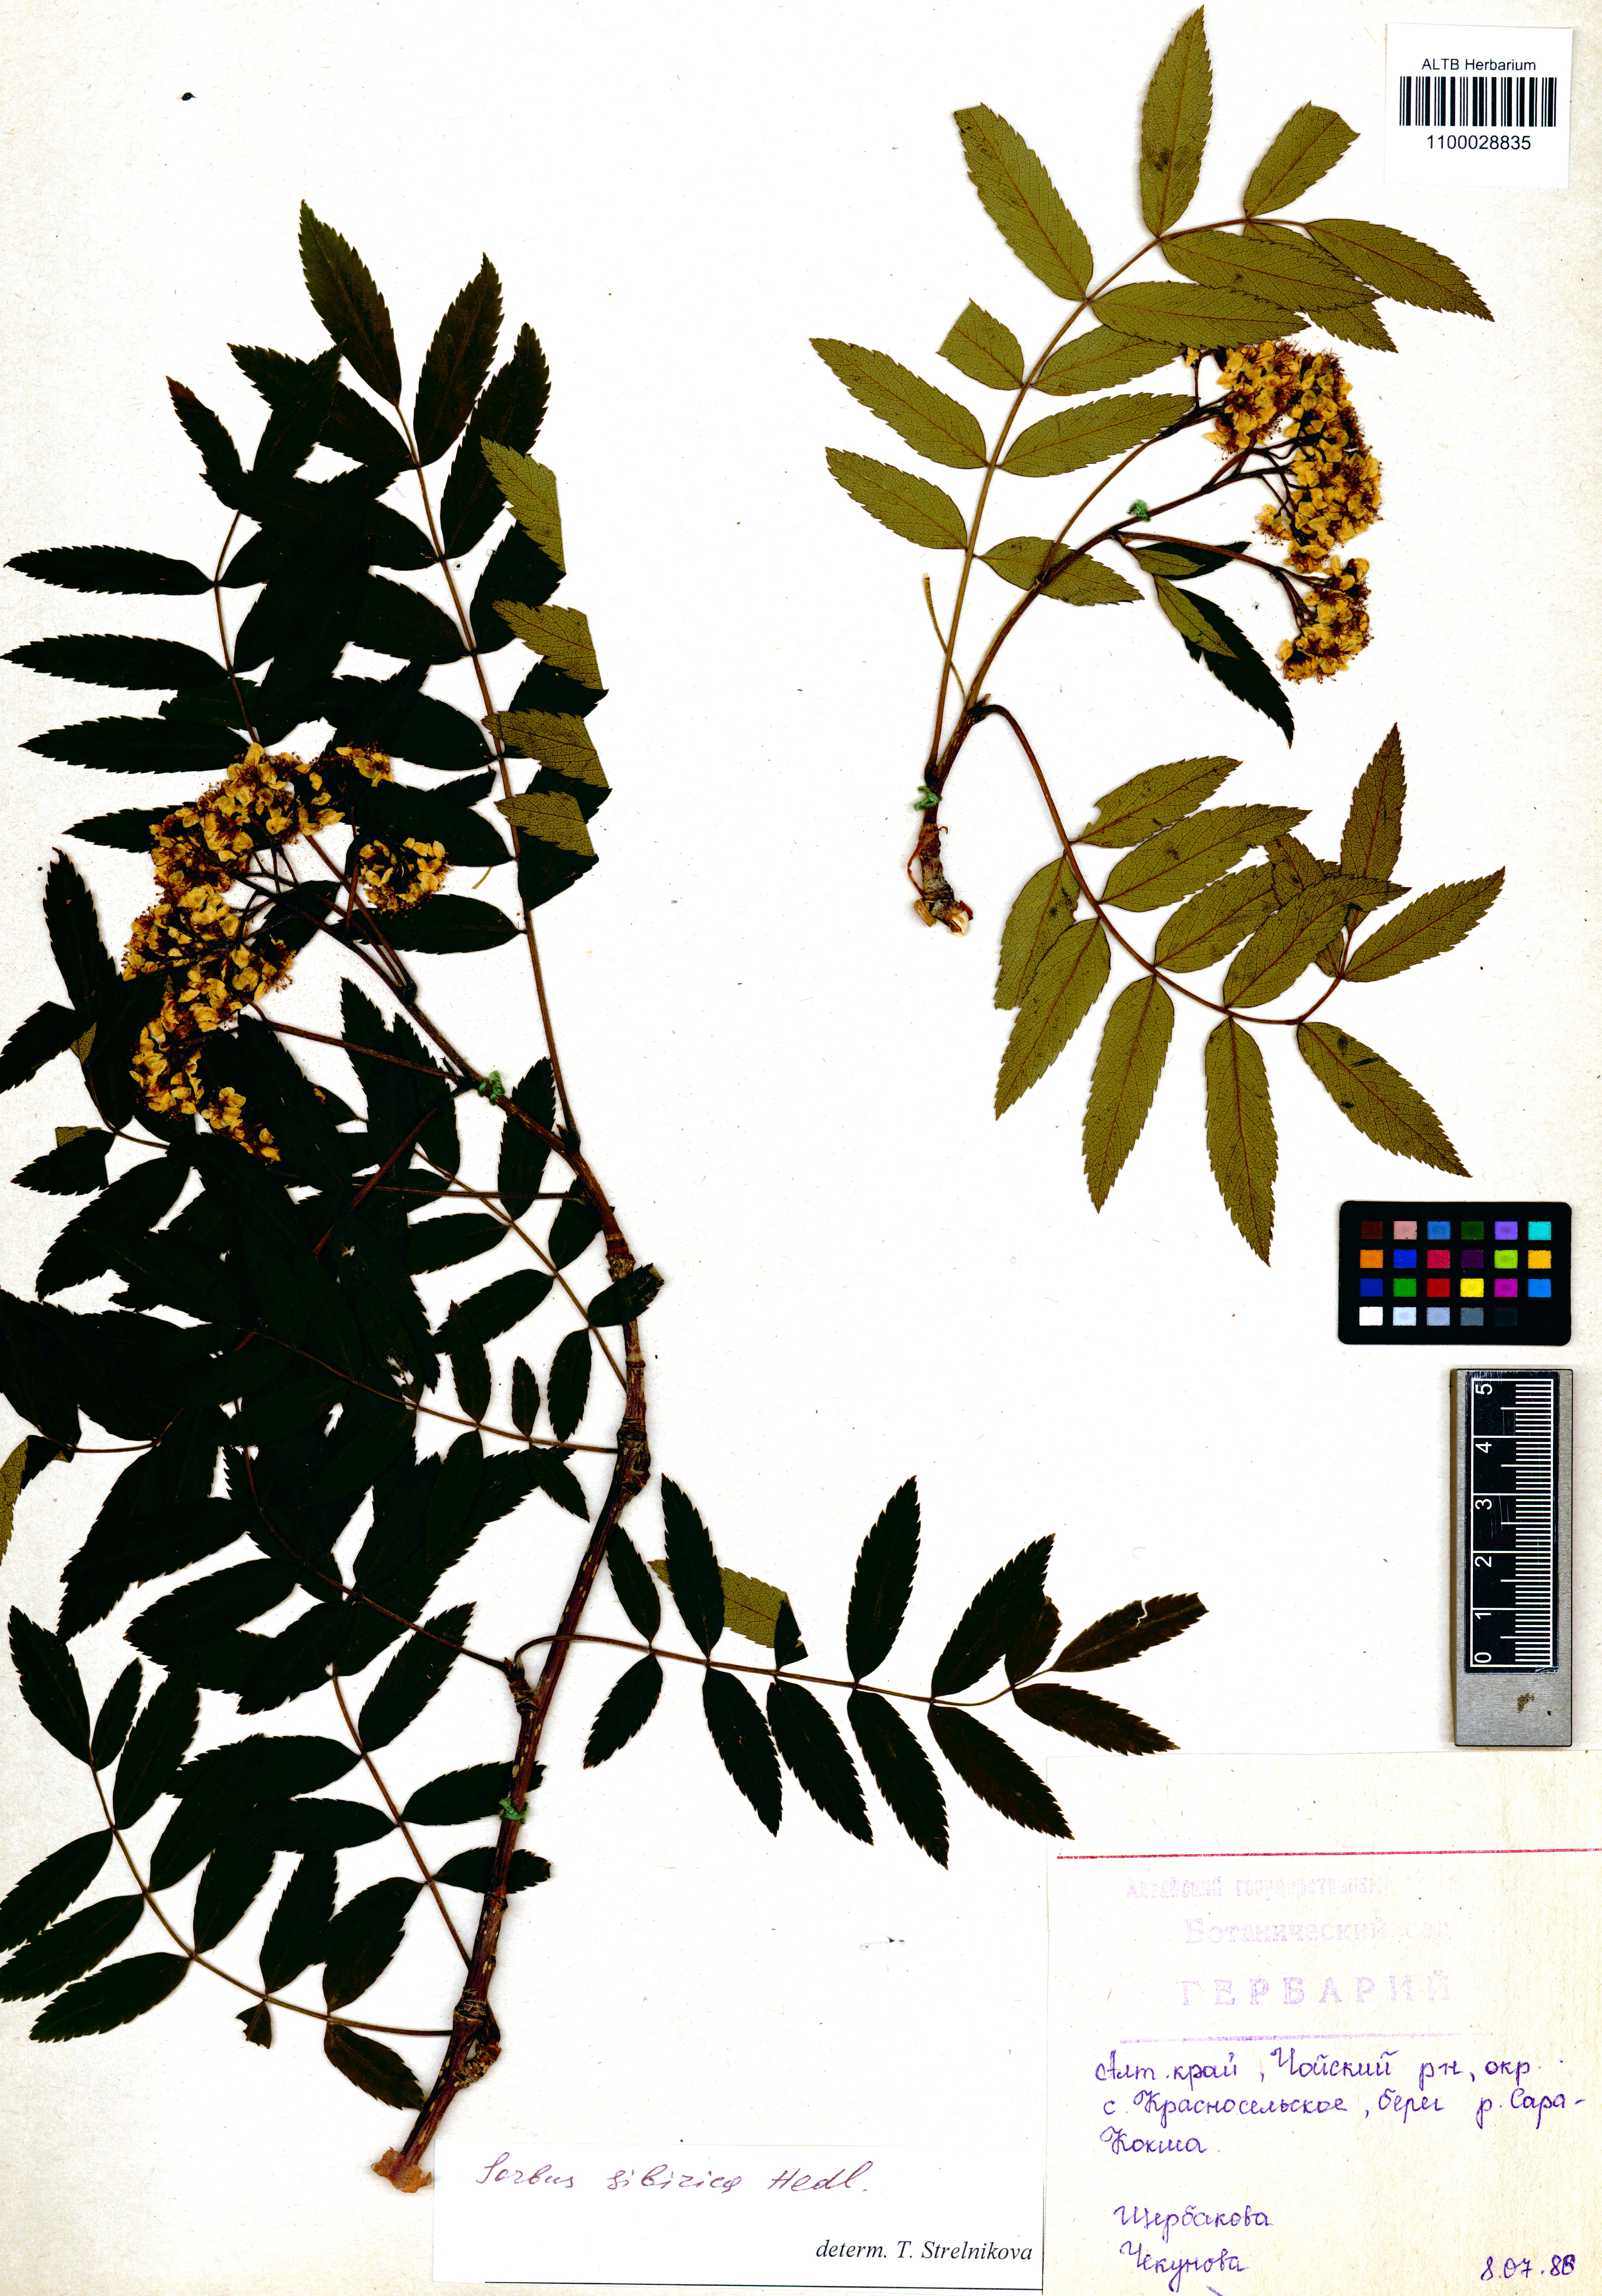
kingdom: Plantae
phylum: Tracheophyta
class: Magnoliopsida
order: Rosales
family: Rosaceae
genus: Sorbus
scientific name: Sorbus aucuparia
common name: Rowan
